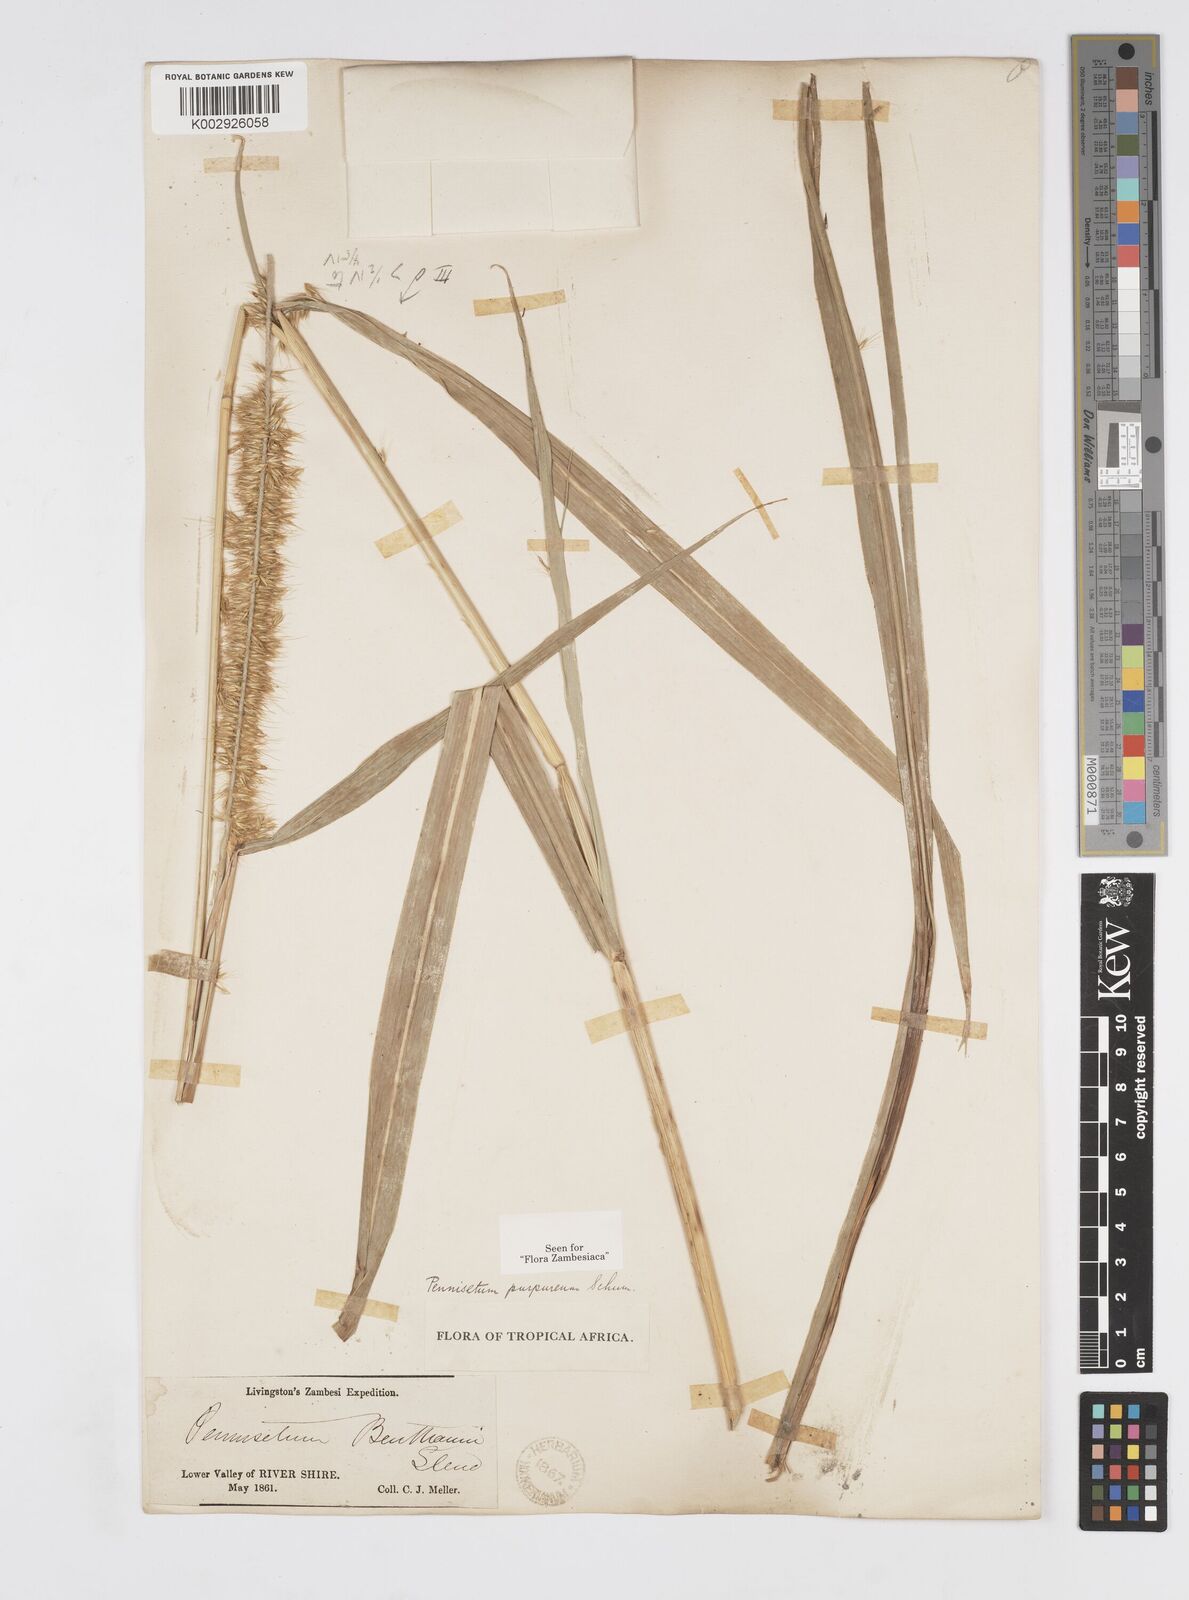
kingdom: Plantae
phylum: Tracheophyta
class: Liliopsida
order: Poales
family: Poaceae
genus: Cenchrus
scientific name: Cenchrus purpureus
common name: Elephant grass
